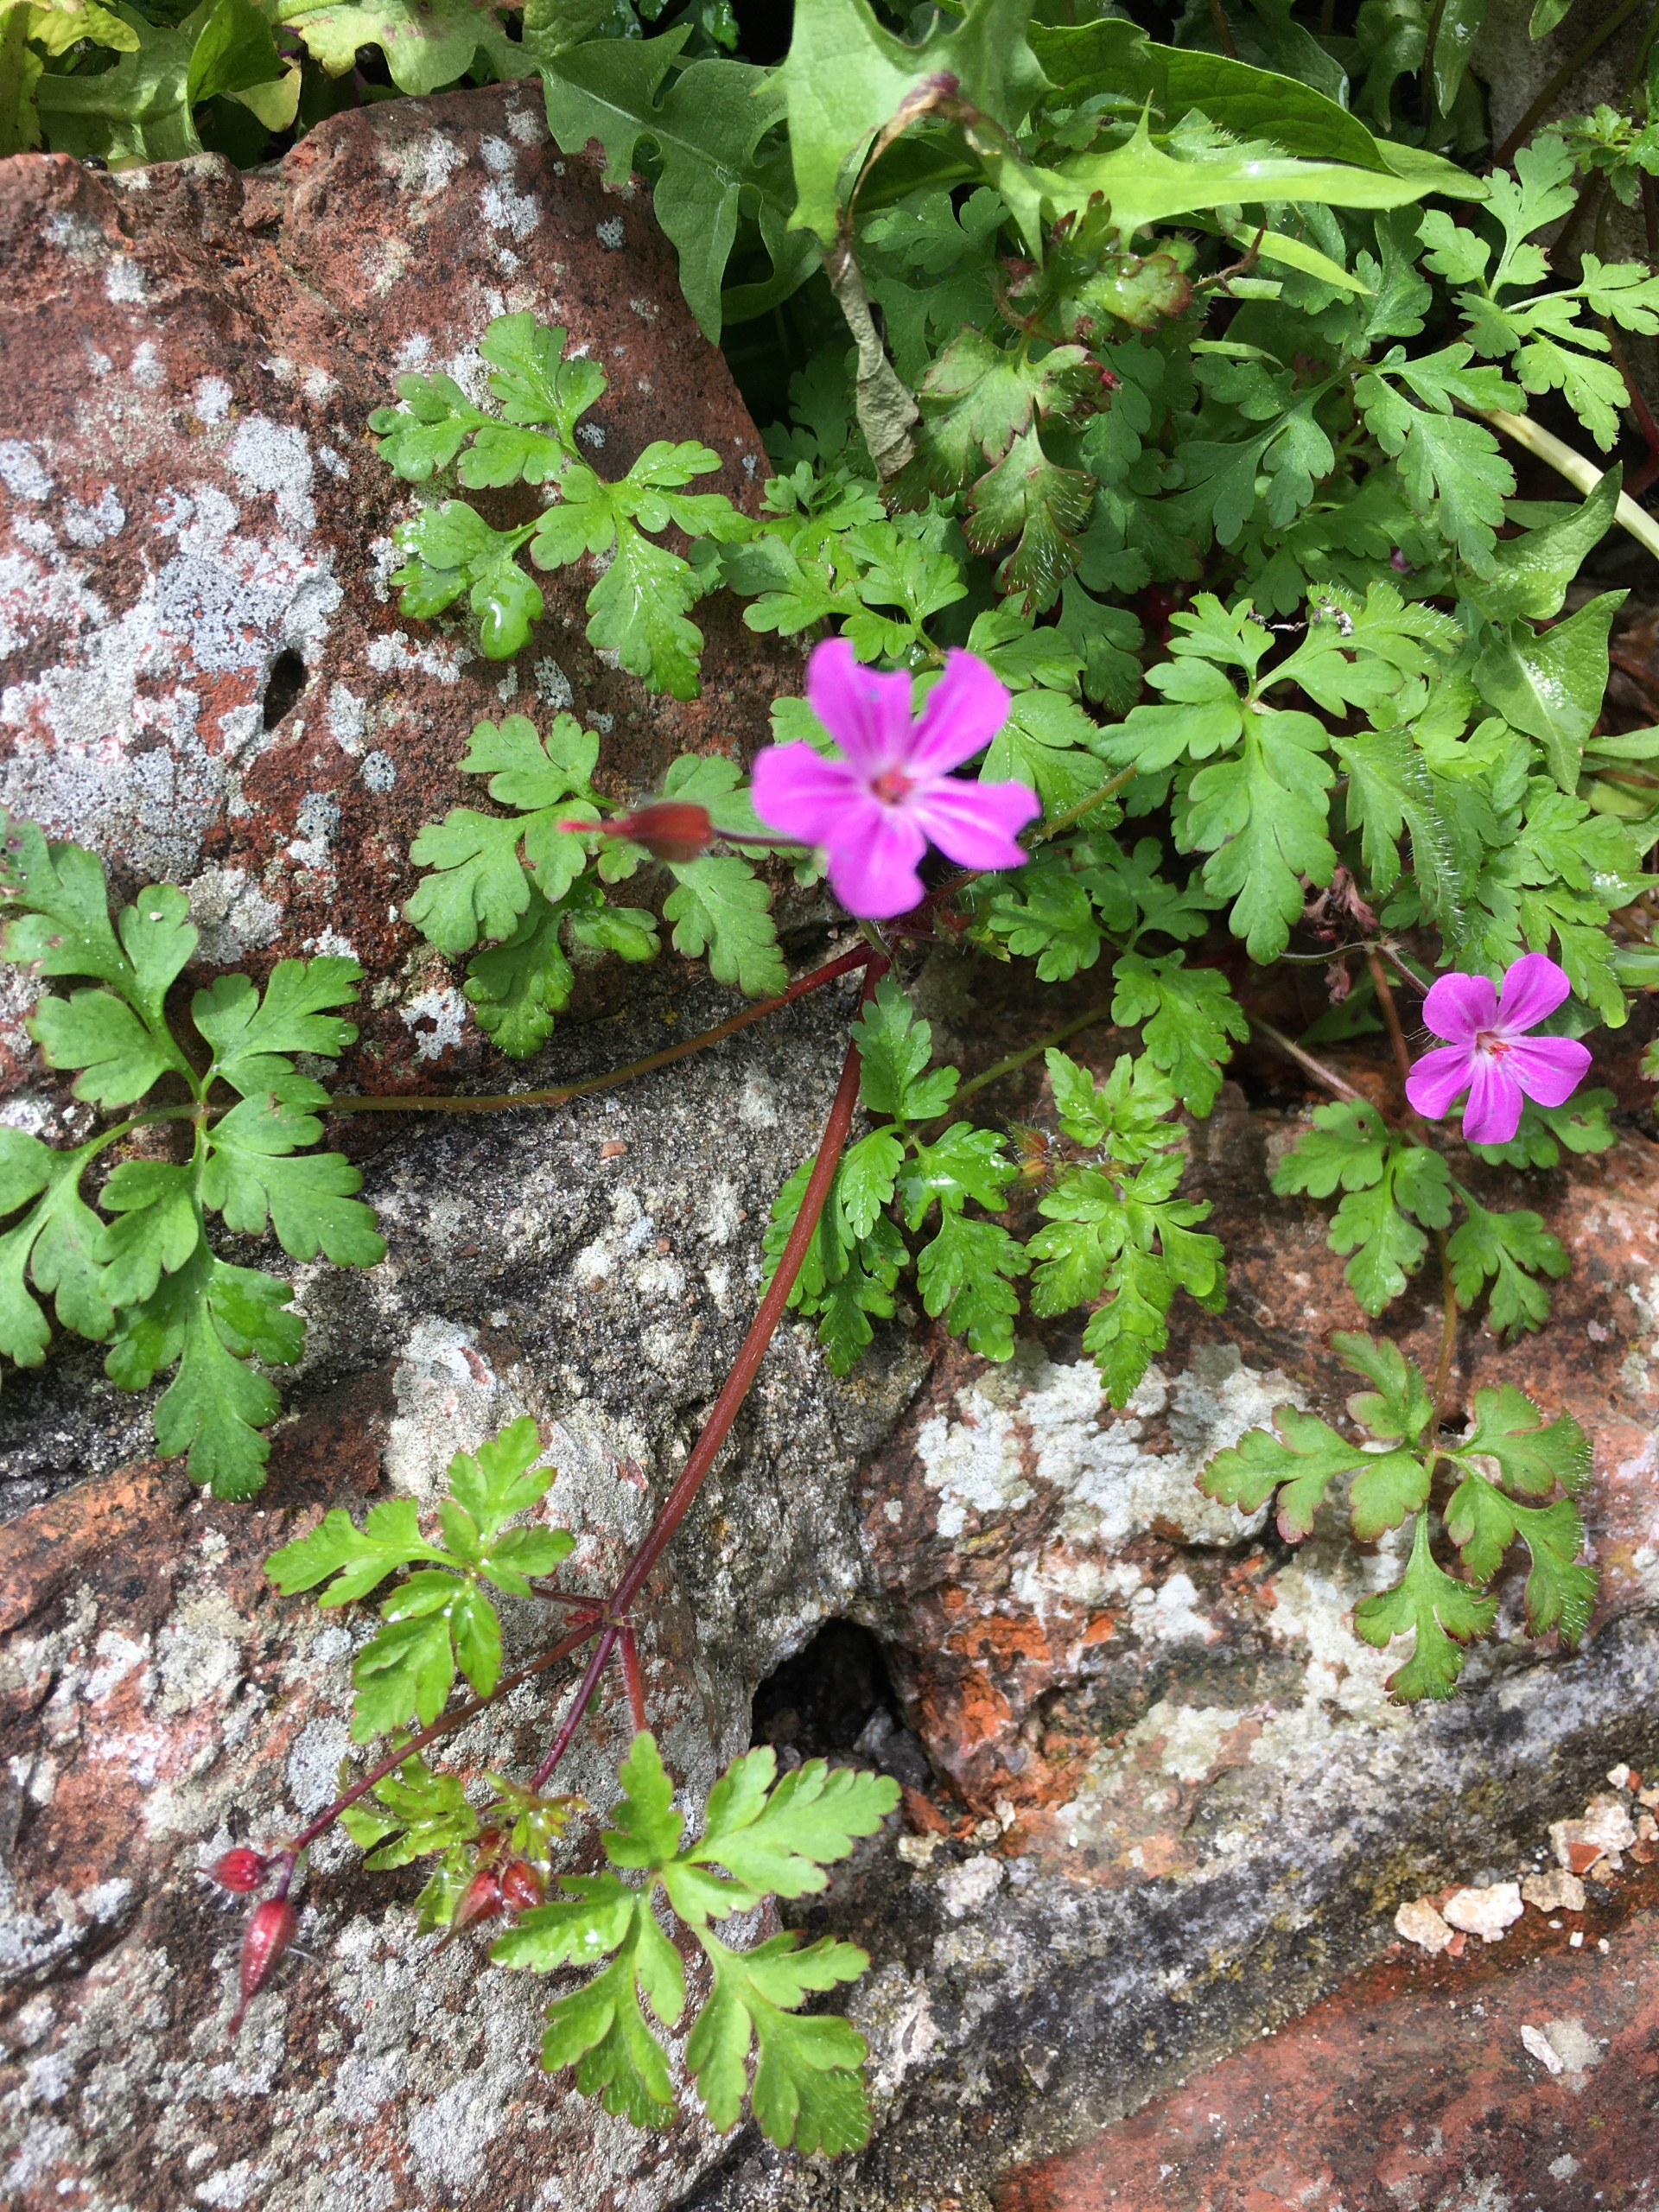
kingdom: Plantae
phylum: Tracheophyta
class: Magnoliopsida
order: Geraniales
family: Geraniaceae
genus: Geranium
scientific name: Geranium robertianum
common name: Stinkende storkenæb
